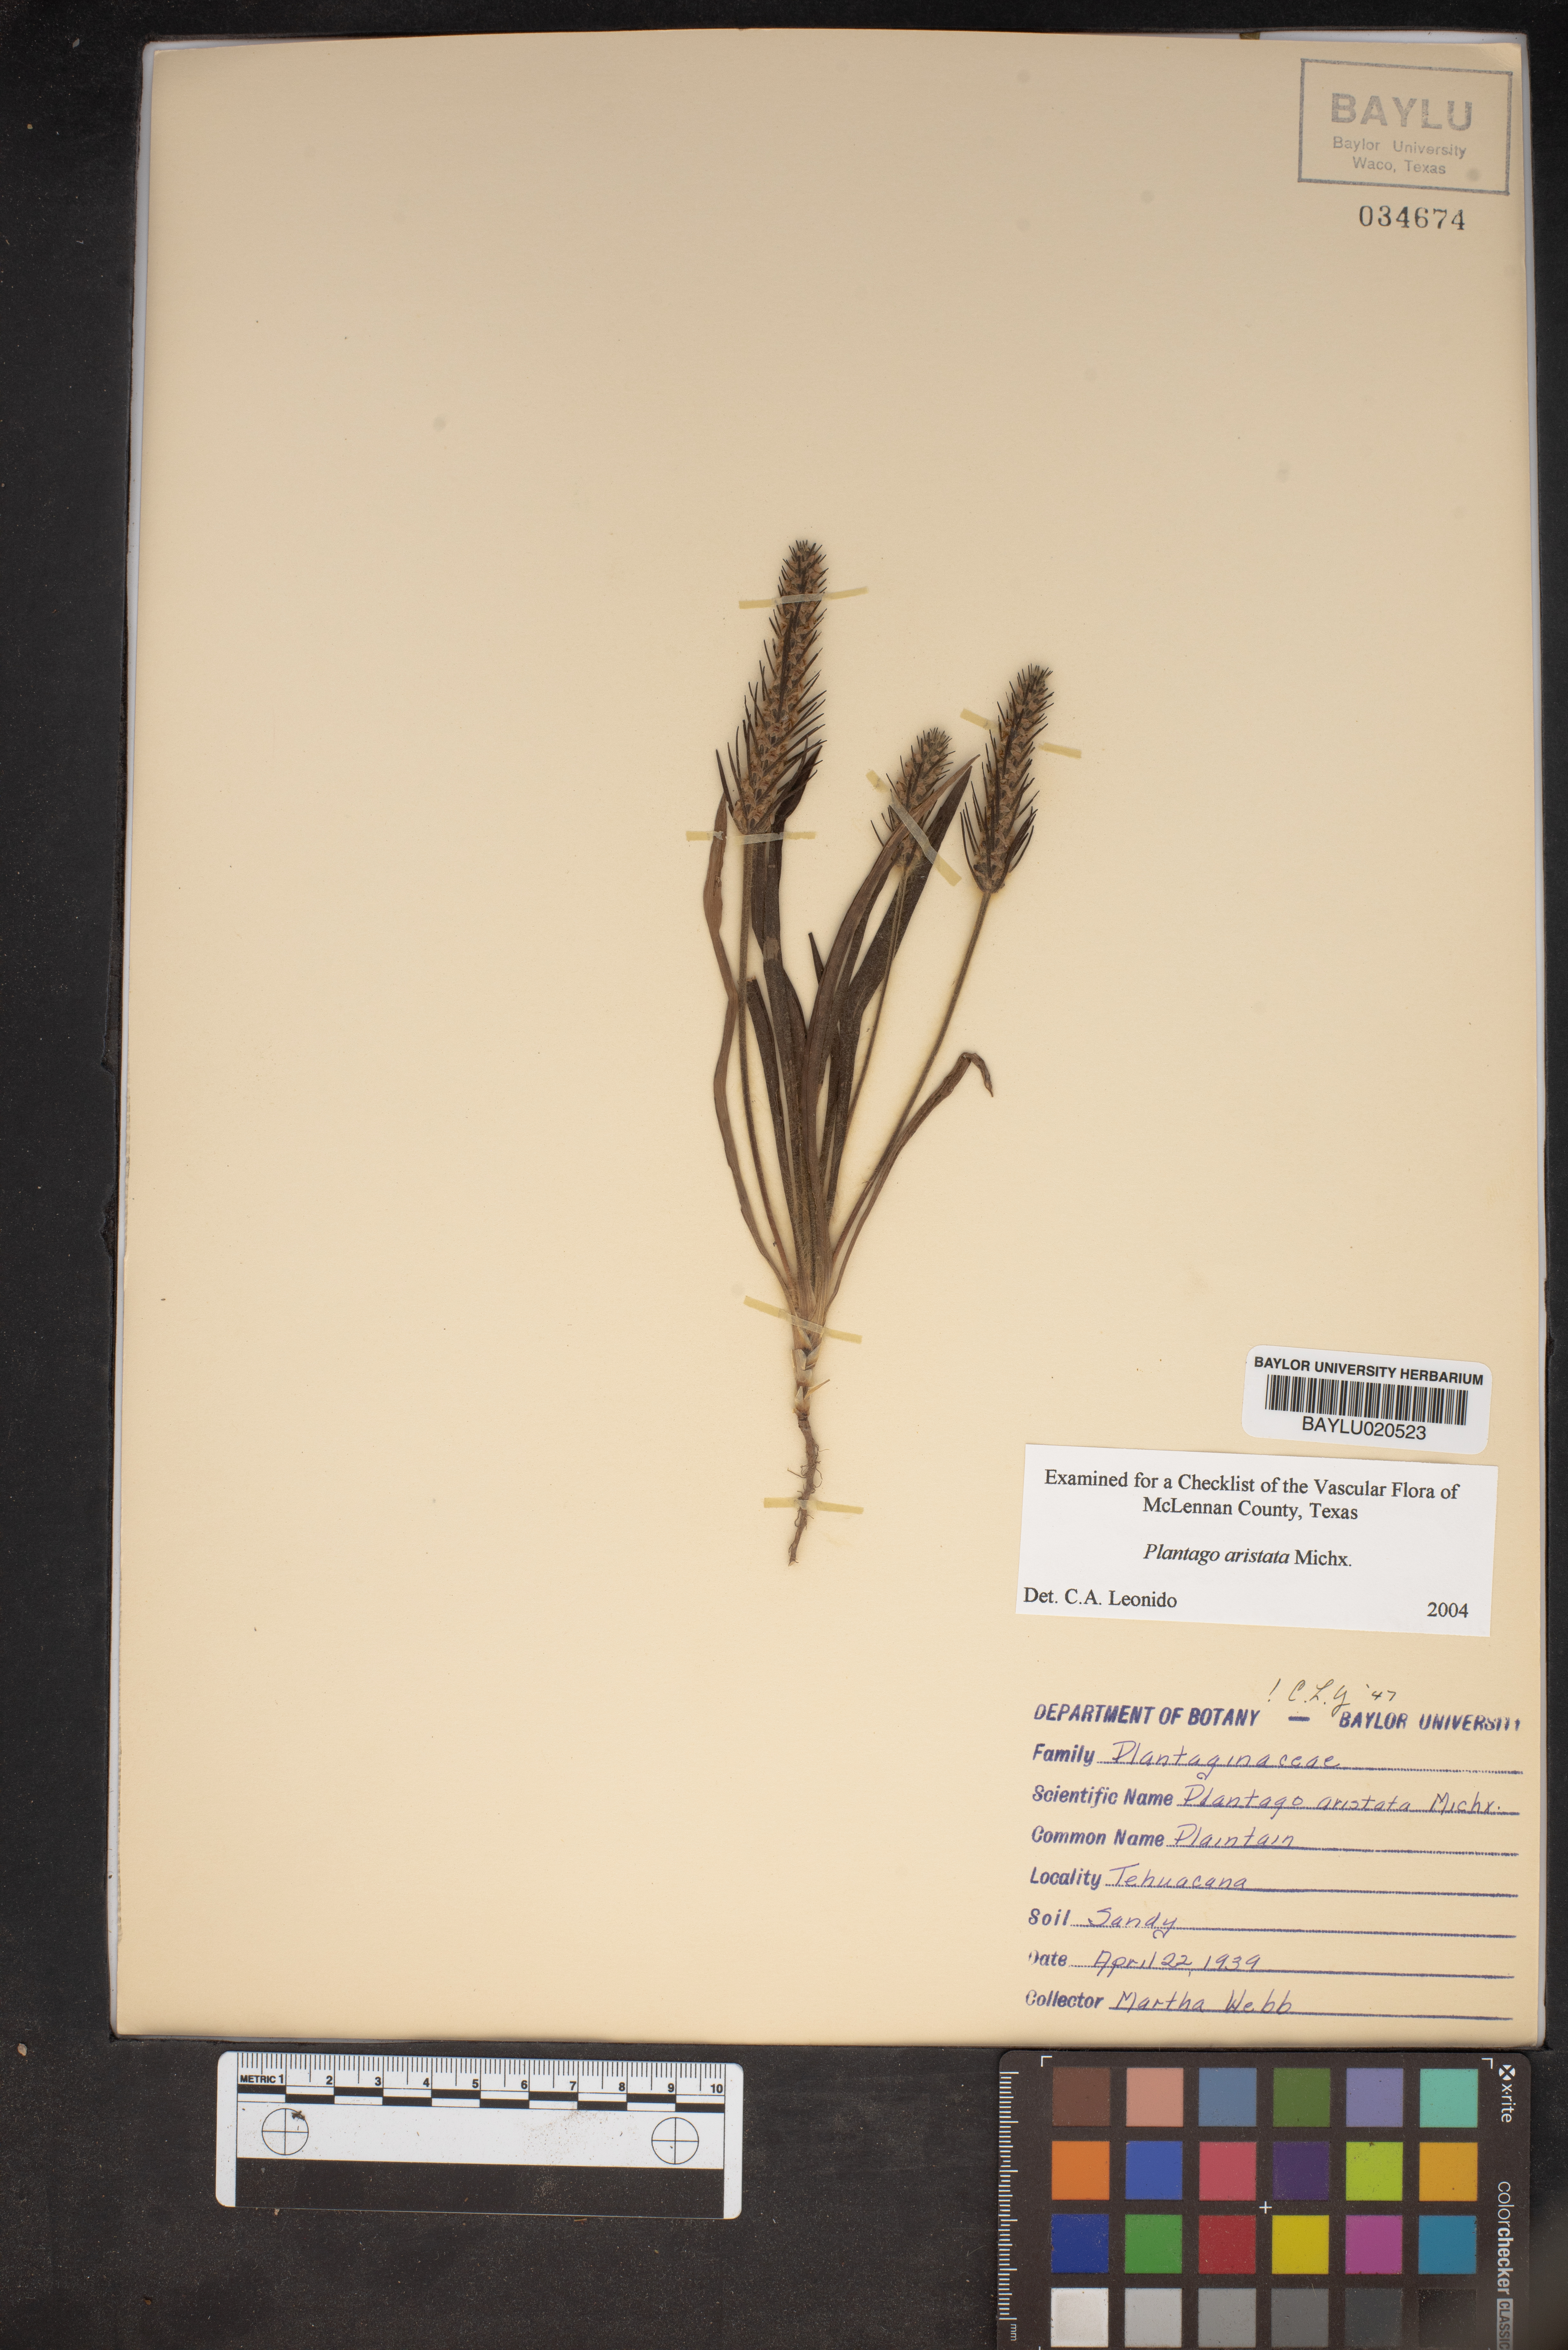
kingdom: Plantae
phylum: Tracheophyta
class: Magnoliopsida
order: Lamiales
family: Plantaginaceae
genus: Plantago
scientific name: Plantago aristata
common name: Bracted plantain
